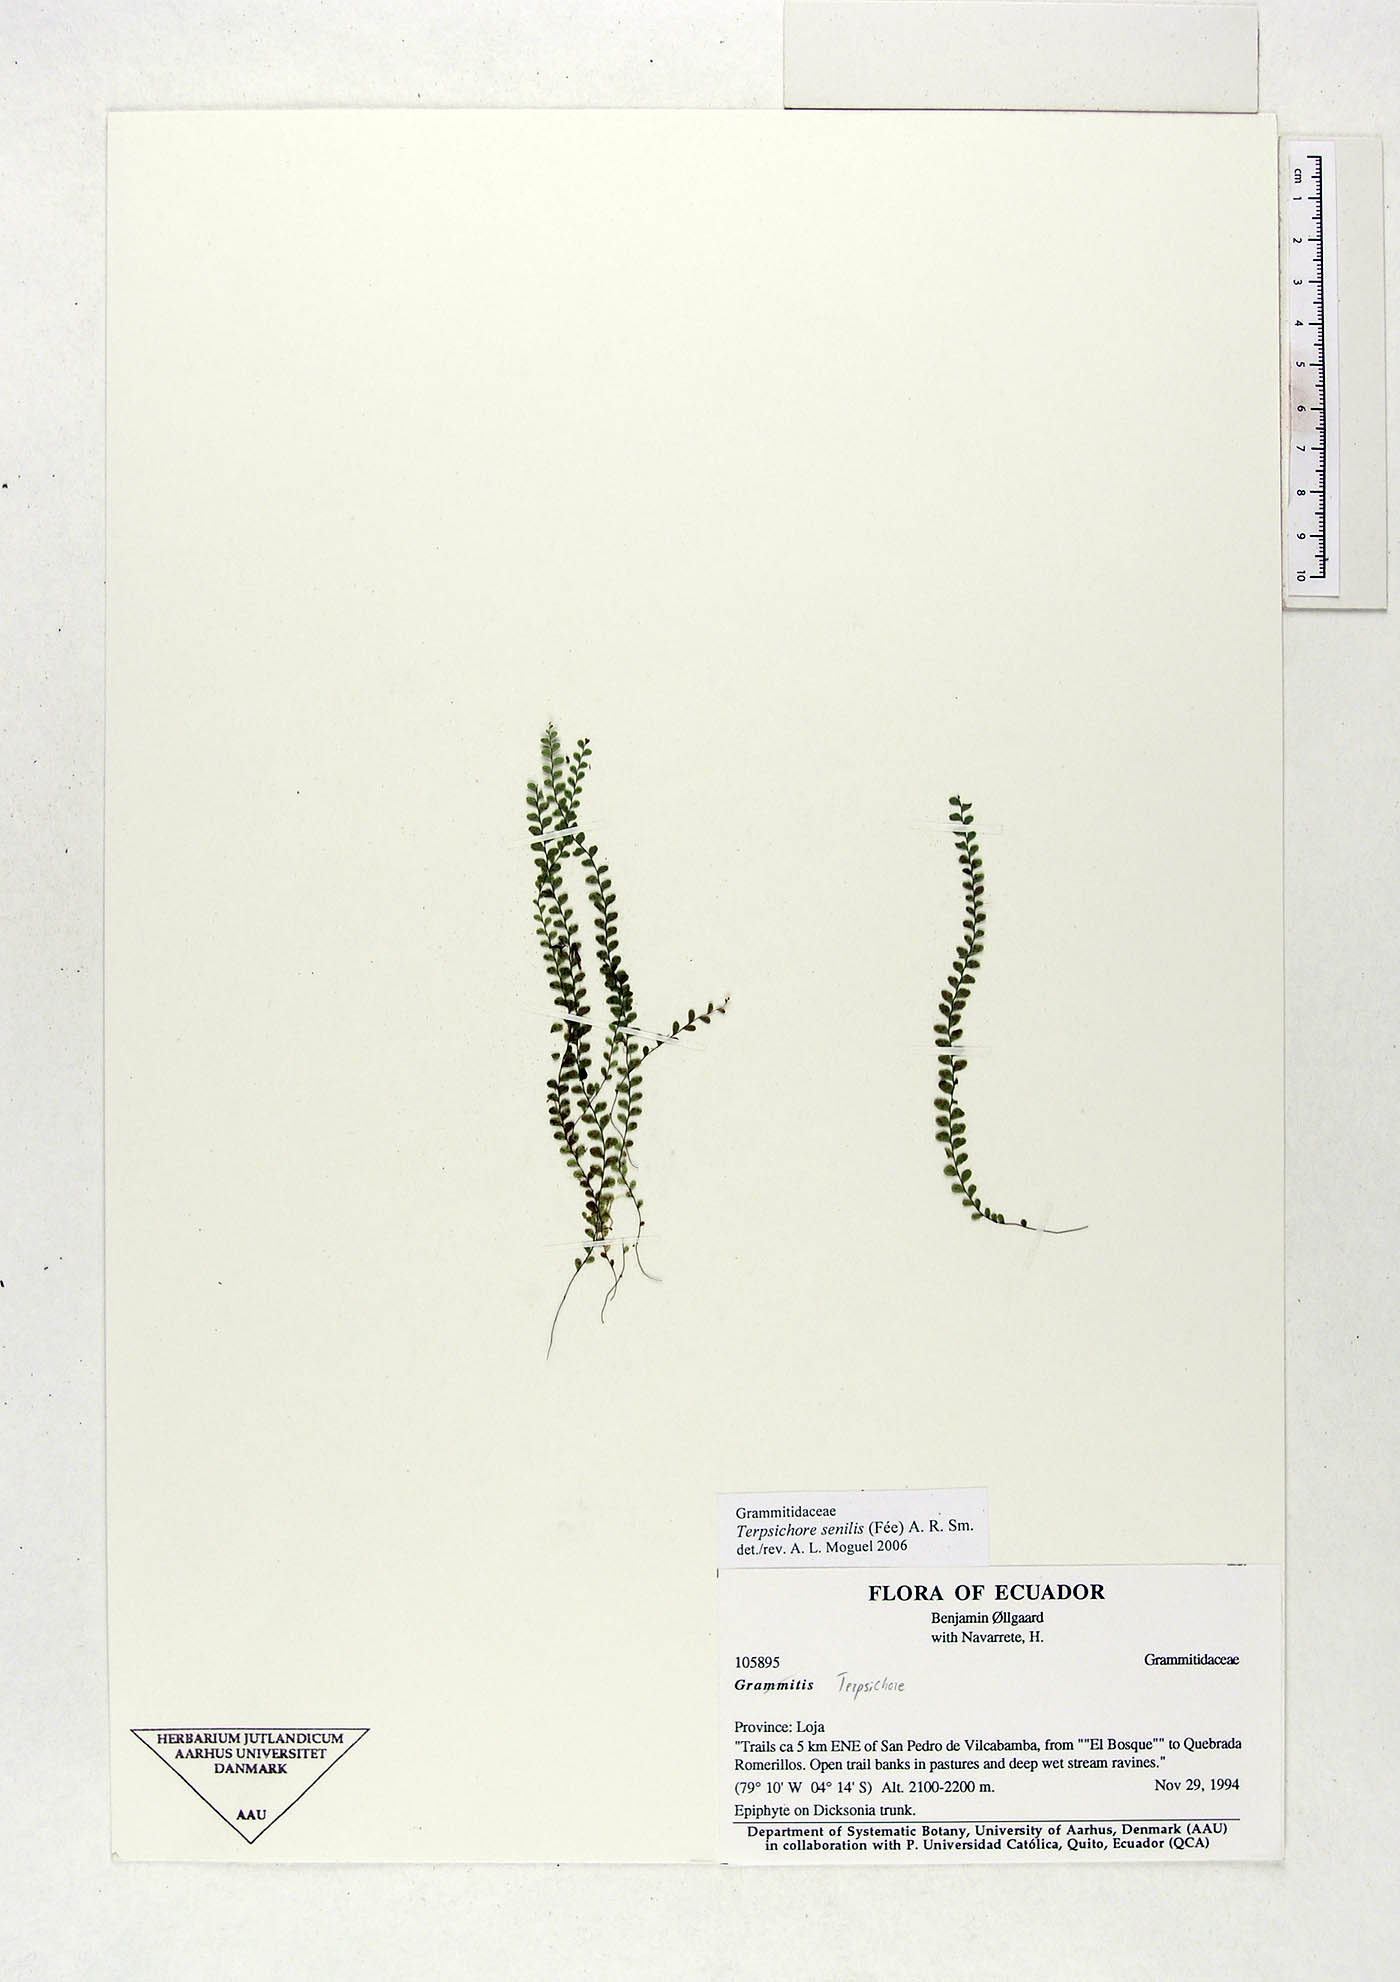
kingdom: Plantae
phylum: Tracheophyta
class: Polypodiopsida
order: Polypodiales
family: Polypodiaceae
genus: Alansmia
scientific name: Alansmia senilis
